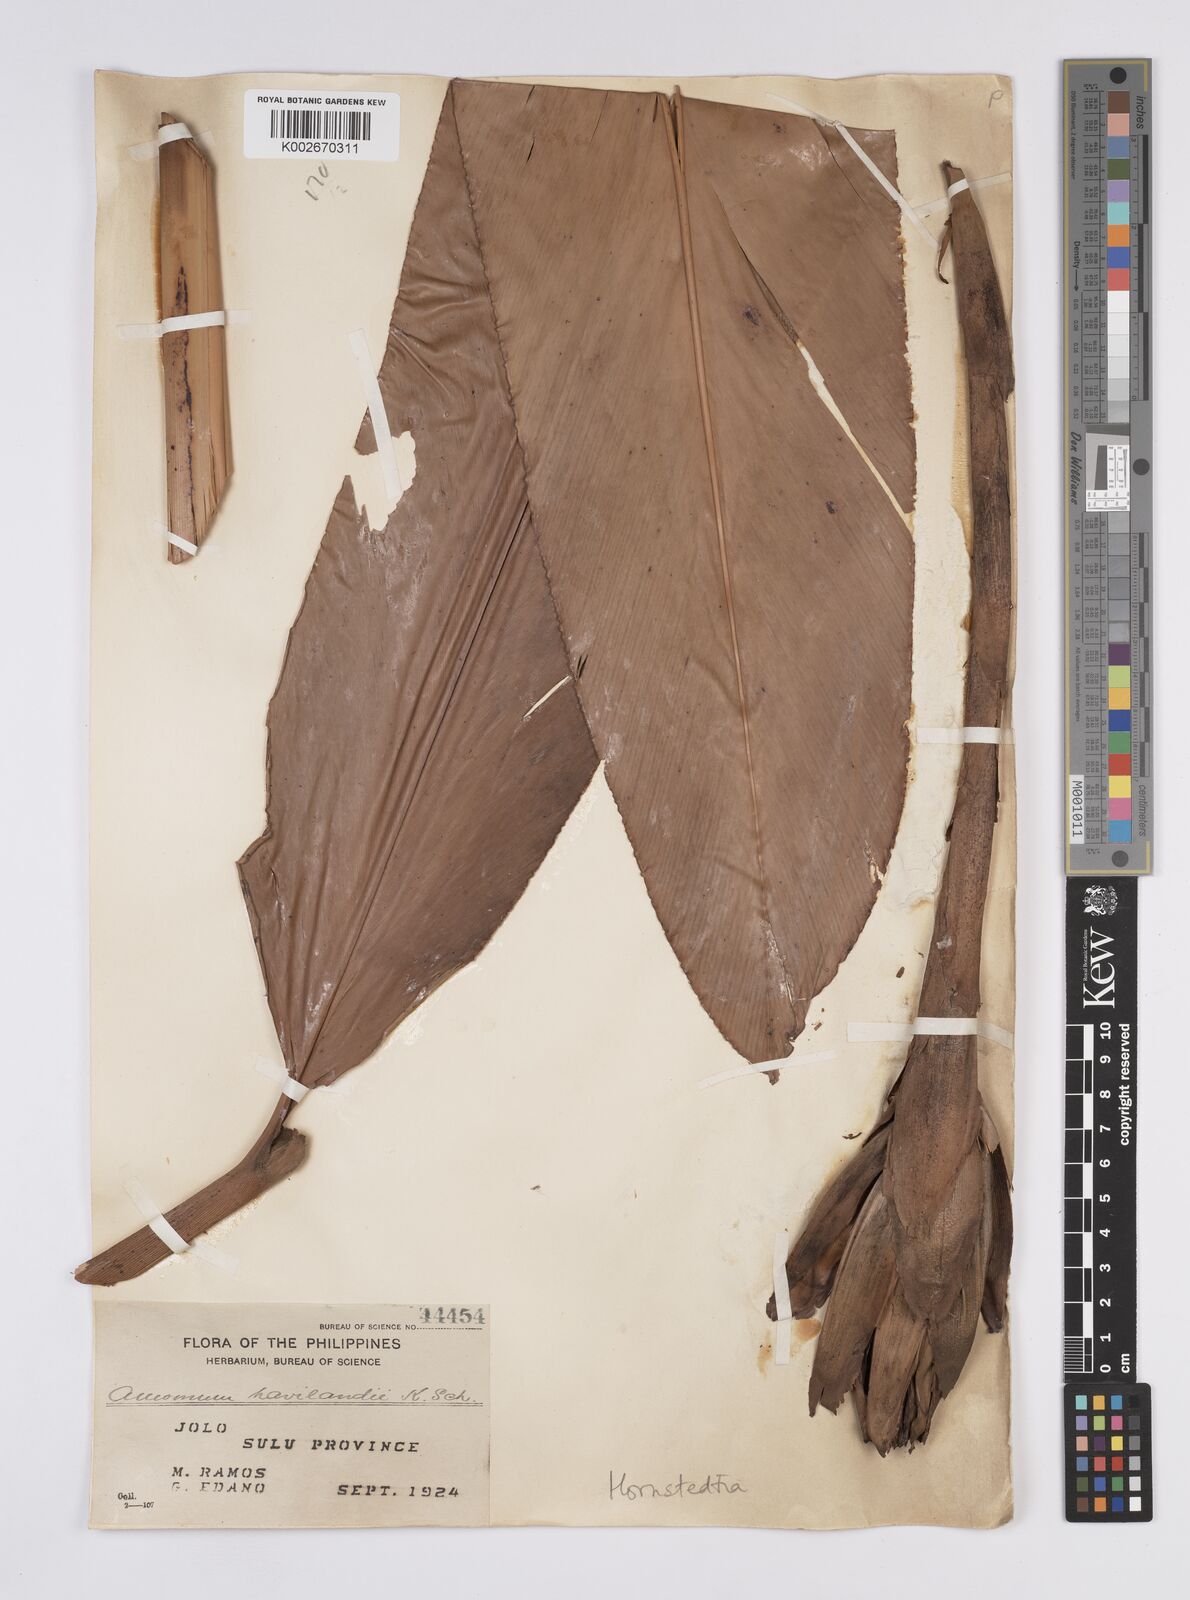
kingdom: Plantae
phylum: Tracheophyta
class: Liliopsida
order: Zingiberales
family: Zingiberaceae
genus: Hornstedtia
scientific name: Hornstedtia havilandii
